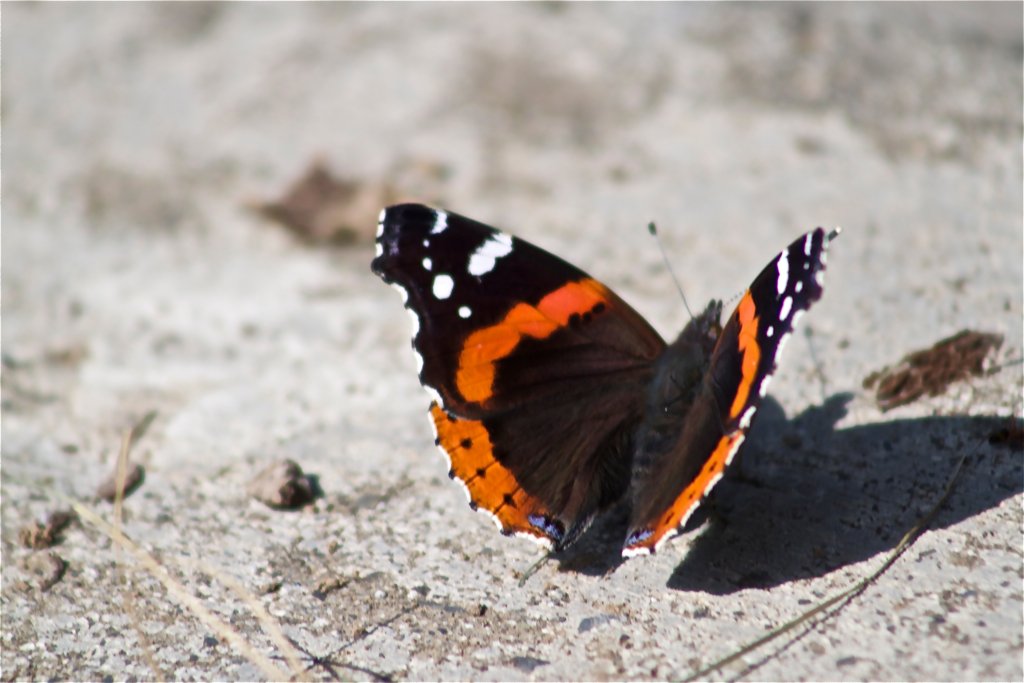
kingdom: Animalia
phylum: Arthropoda
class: Insecta
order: Lepidoptera
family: Nymphalidae
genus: Vanessa
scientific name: Vanessa atalanta
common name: Red Admiral
